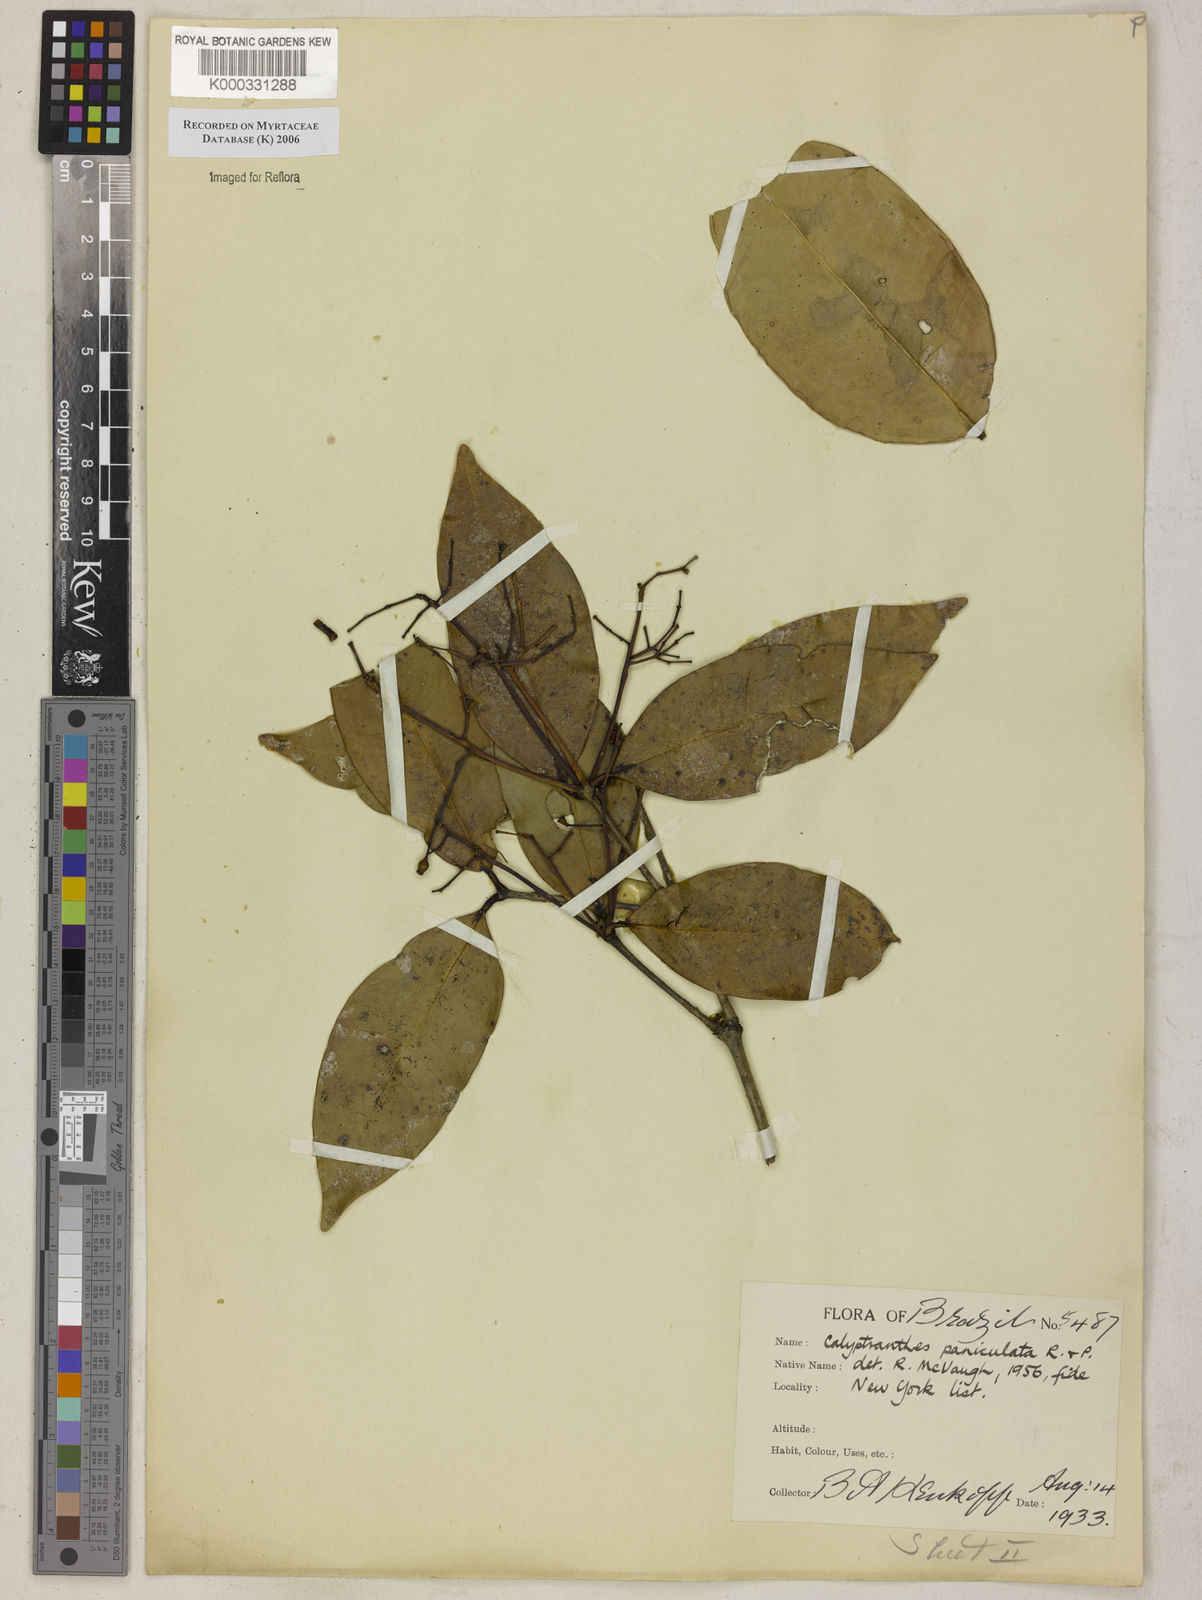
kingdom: Plantae
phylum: Tracheophyta
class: Magnoliopsida
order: Myrtales
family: Myrtaceae
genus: Calyptranthes
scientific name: Calyptranthes
